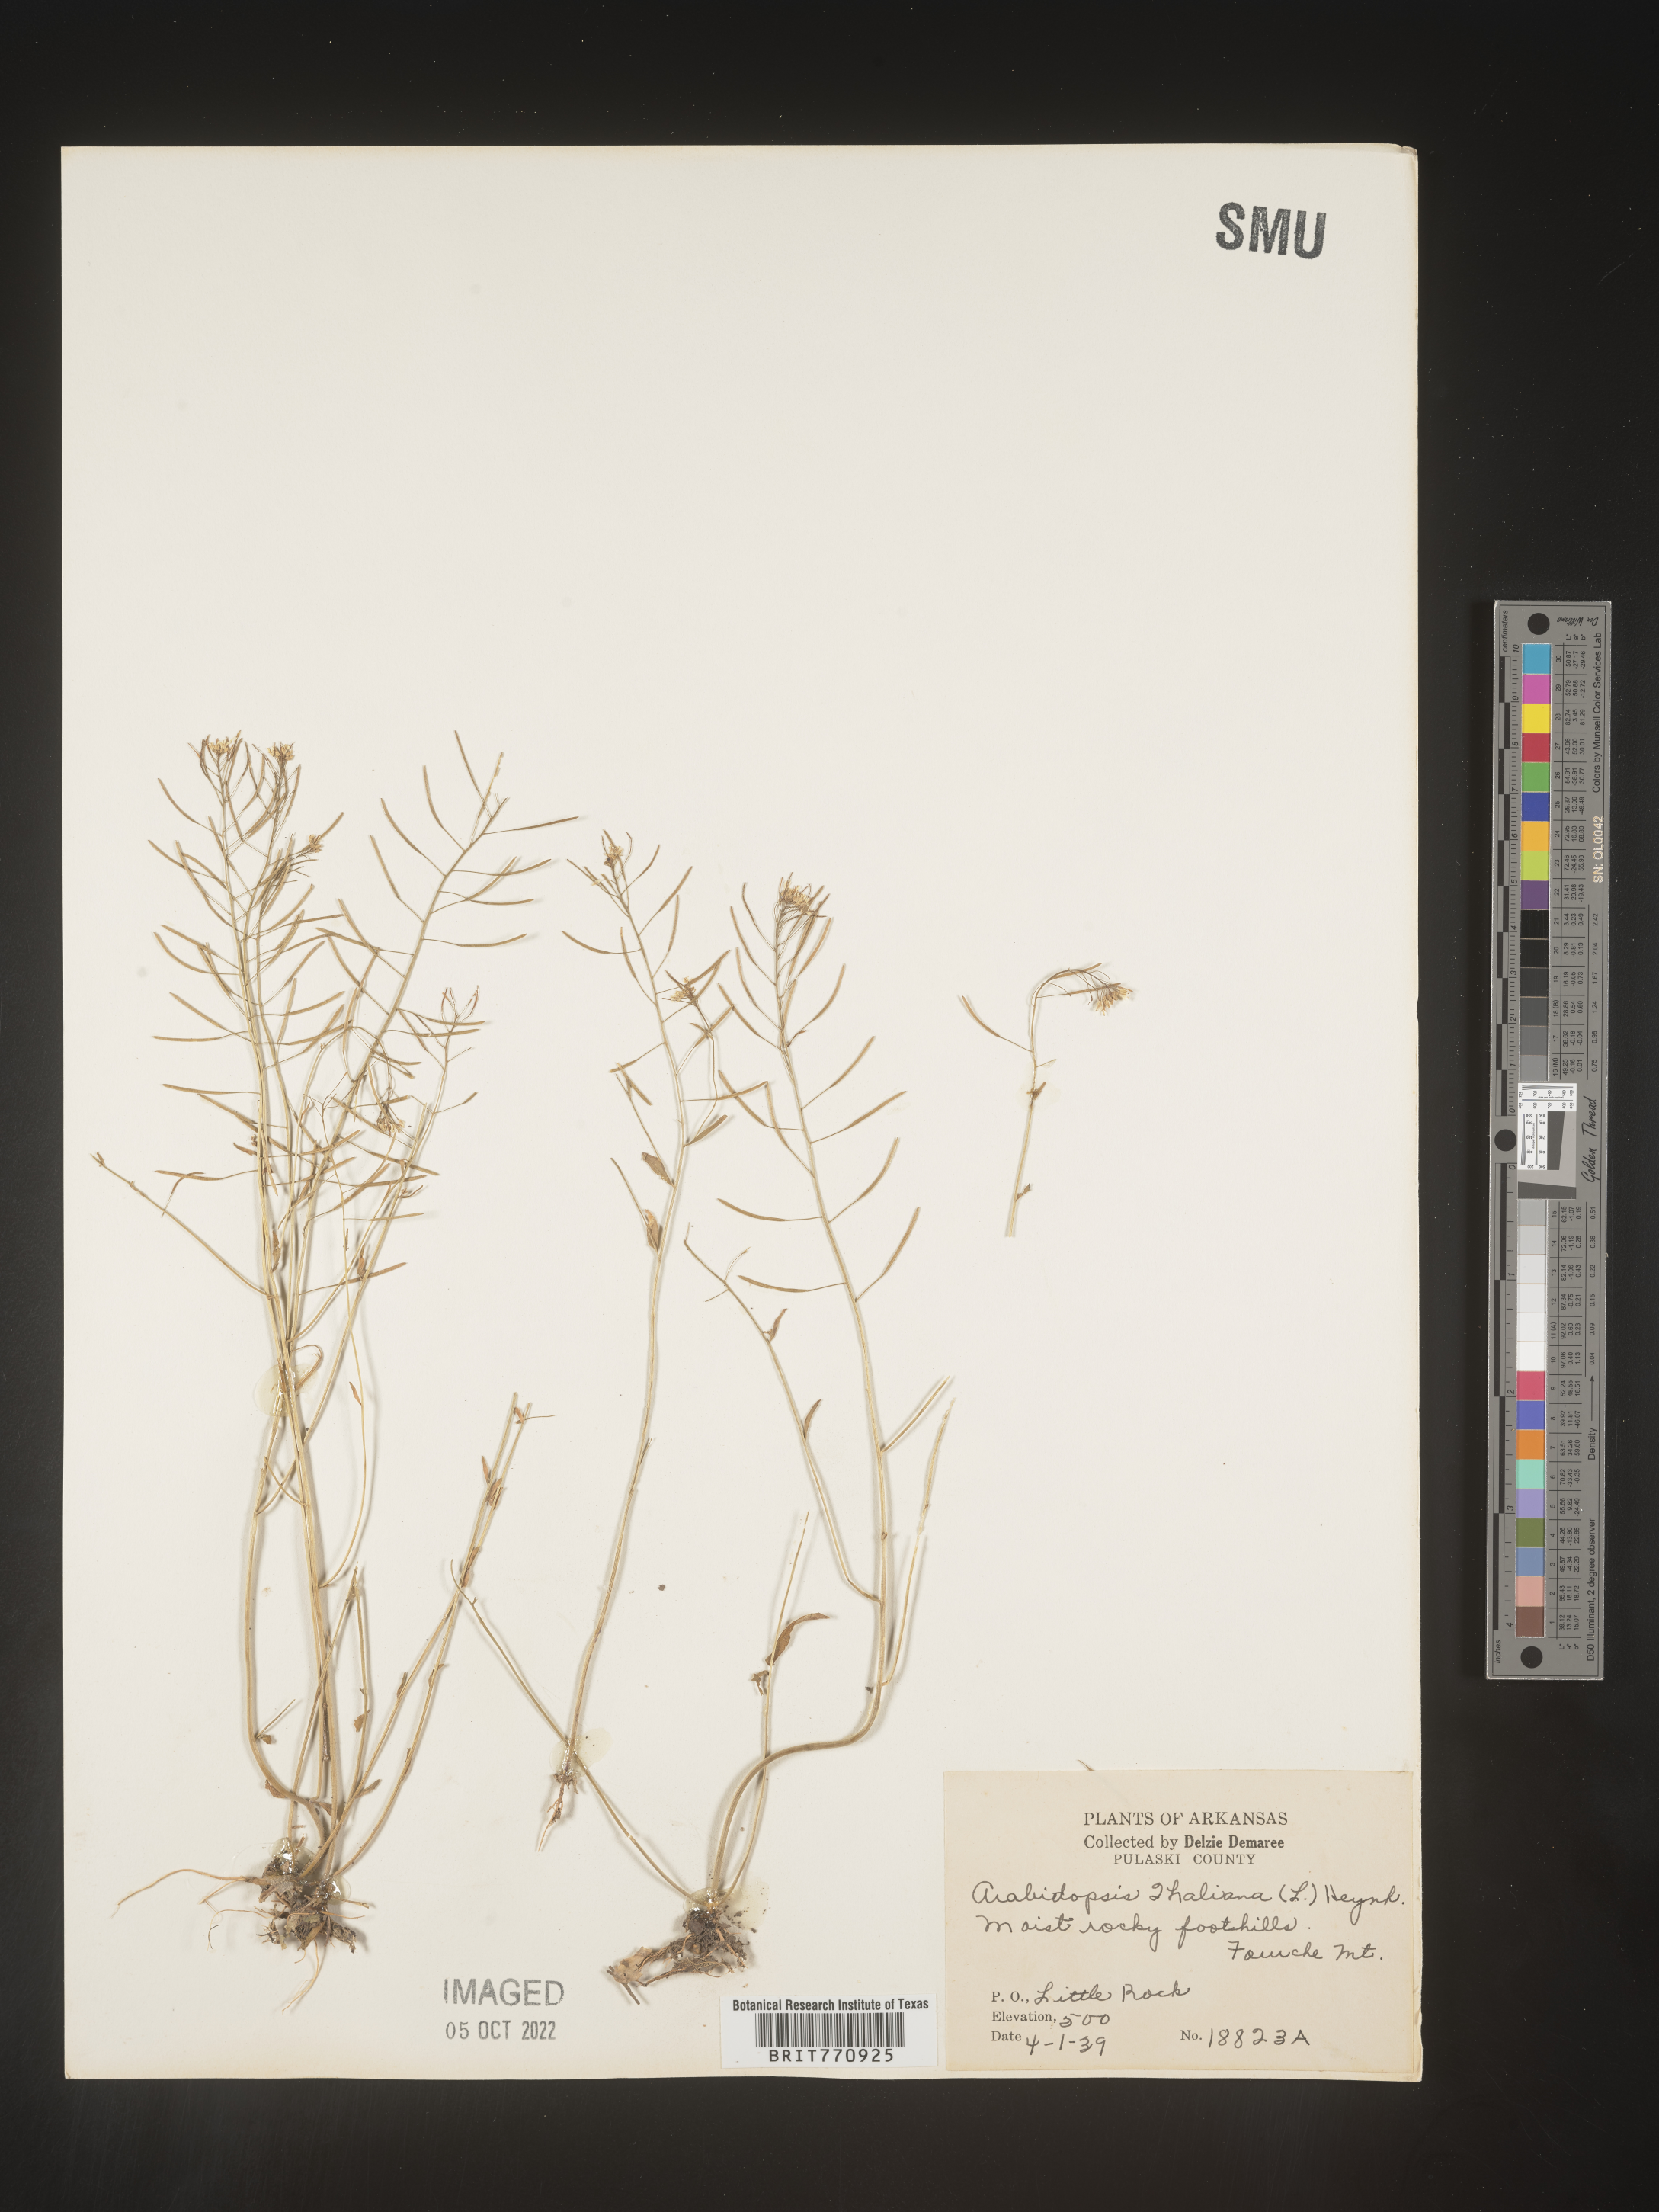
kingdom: Plantae
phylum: Tracheophyta
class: Magnoliopsida
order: Brassicales
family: Brassicaceae
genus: Arabidopsis
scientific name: Arabidopsis thaliana
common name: Thale cress
